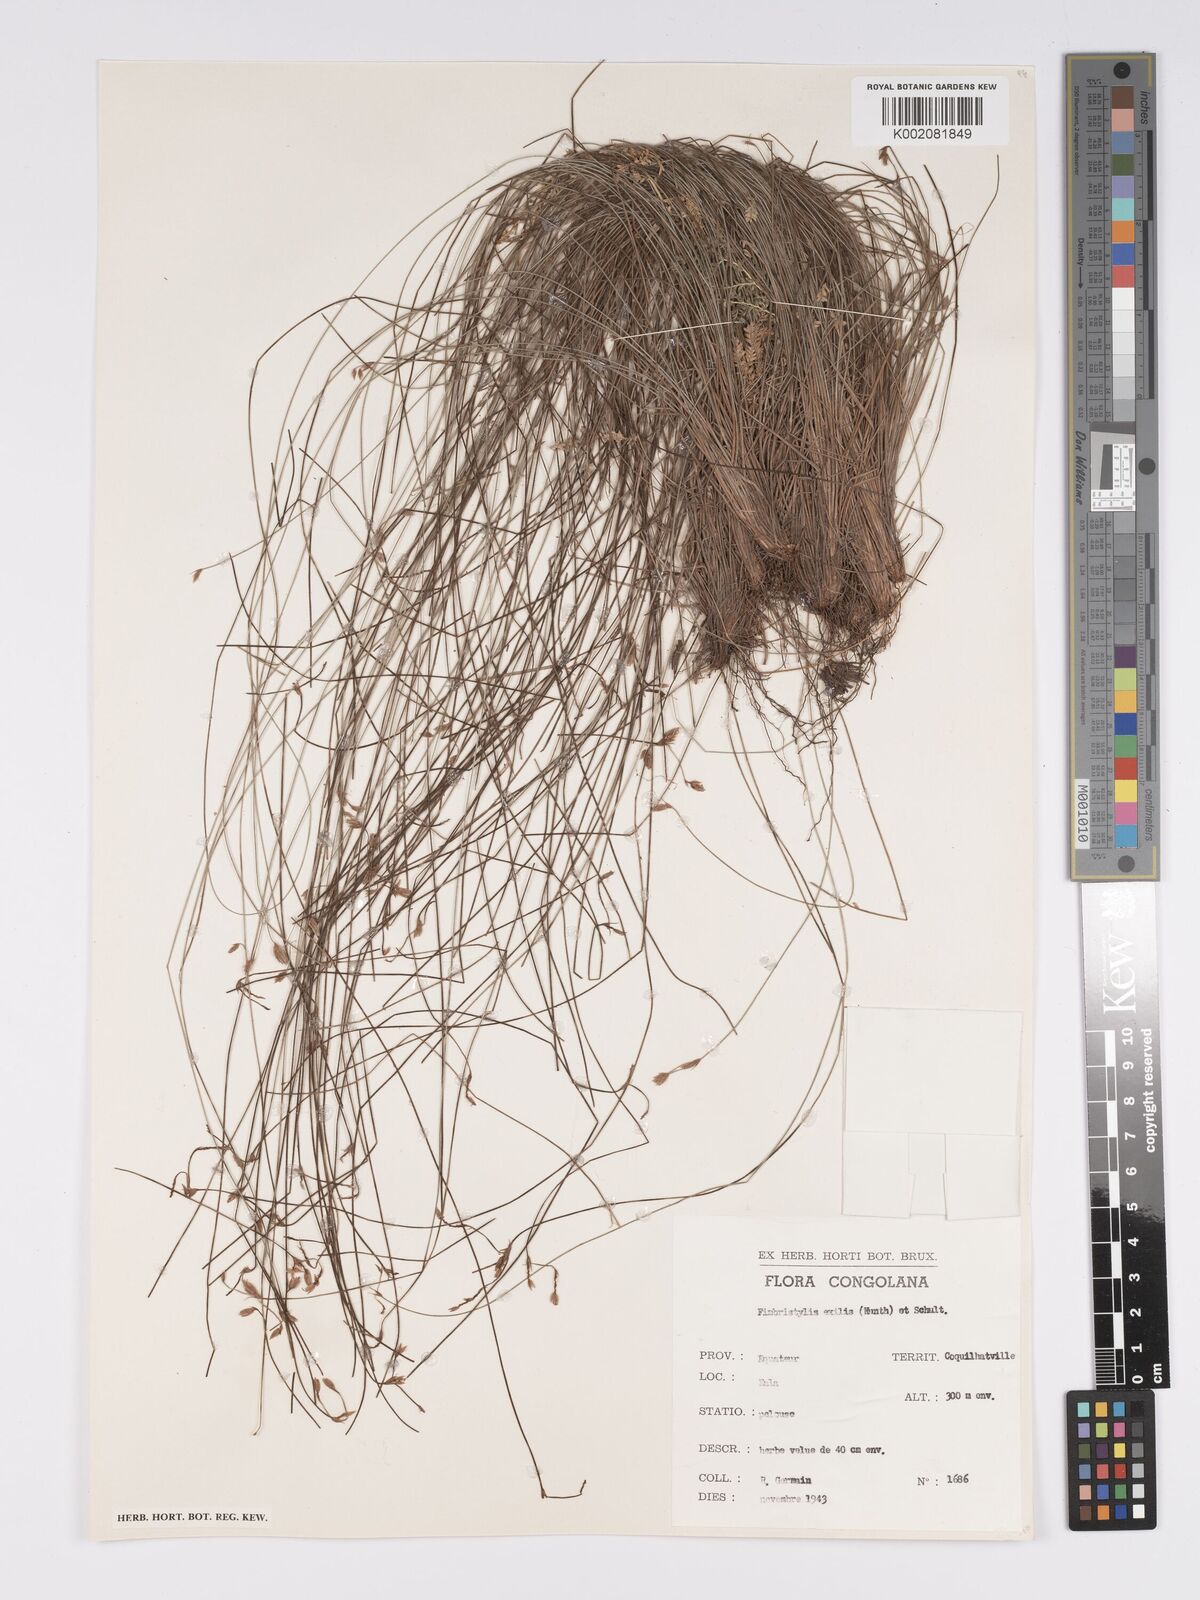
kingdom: Plantae
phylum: Tracheophyta
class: Liliopsida
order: Poales
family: Cyperaceae
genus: Bulbostylis
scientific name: Bulbostylis hispidula
